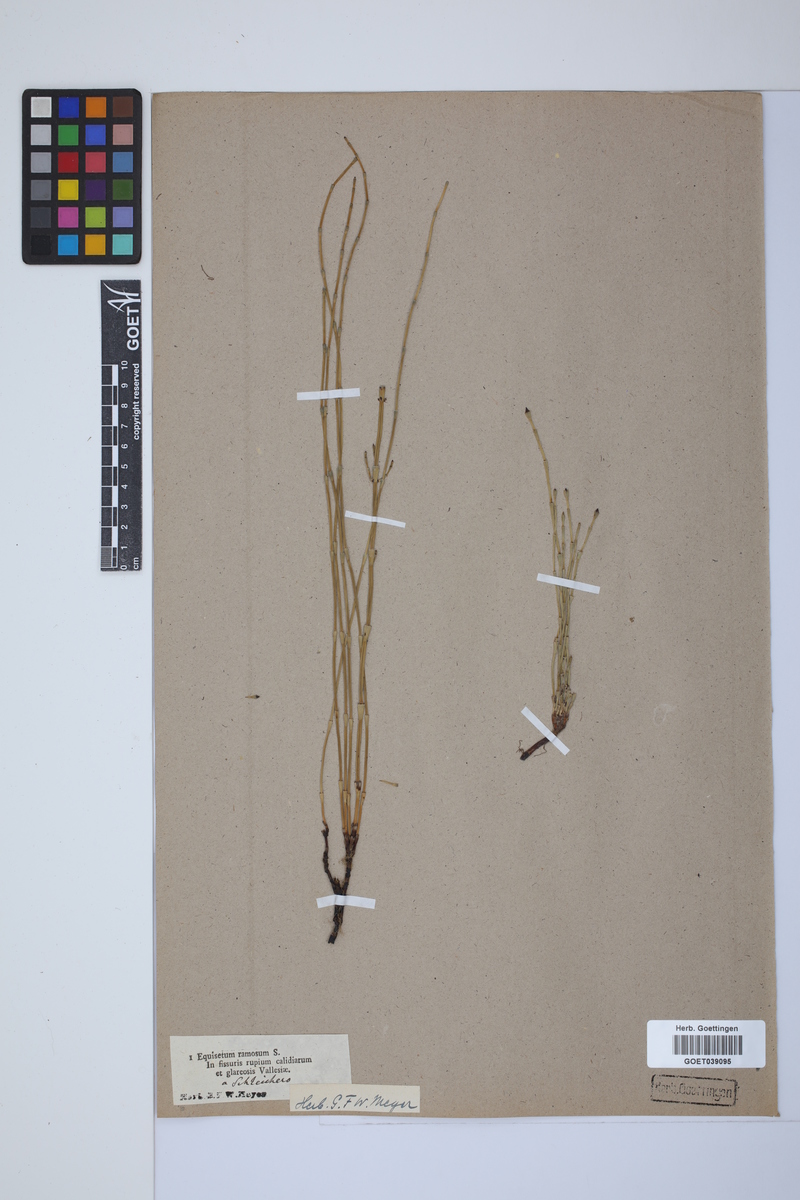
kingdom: Plantae
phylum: Tracheophyta
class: Polypodiopsida
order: Equisetales
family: Equisetaceae
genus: Equisetum
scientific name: Equisetum giganteum
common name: Giant horsetail
